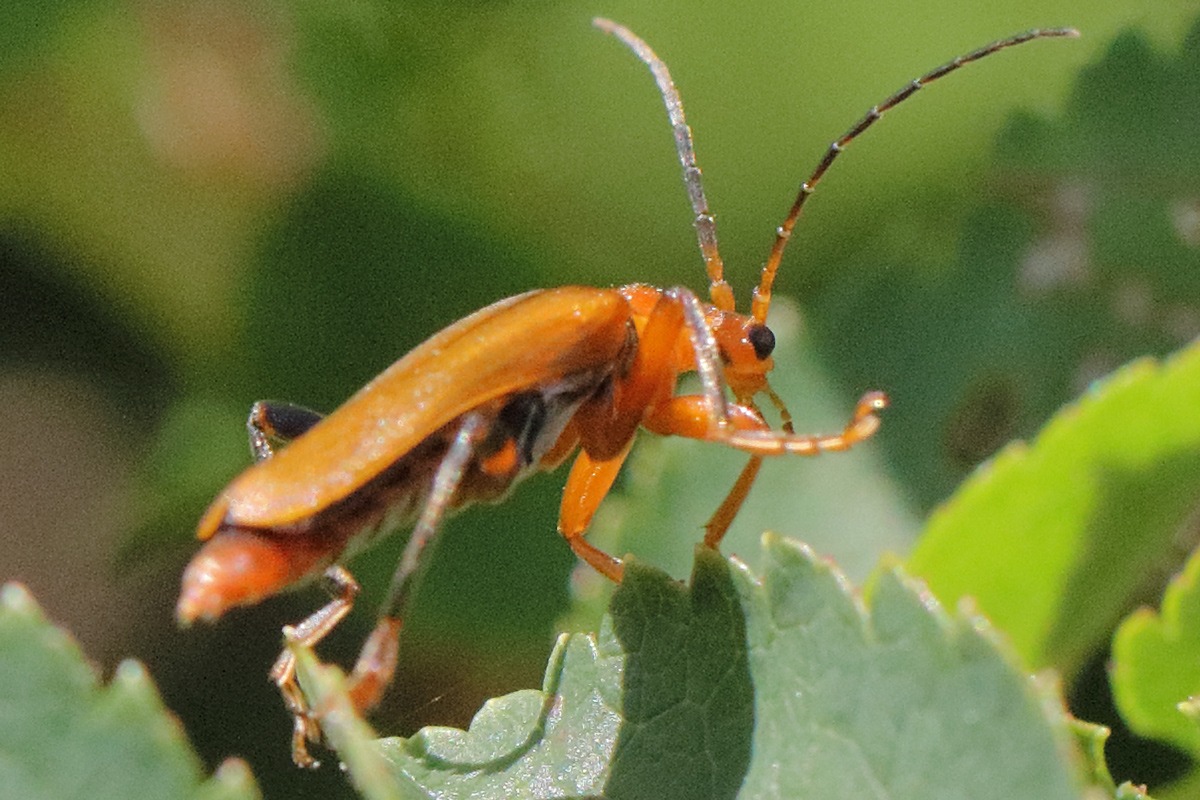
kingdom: Animalia
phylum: Arthropoda
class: Insecta
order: Coleoptera
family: Cantharidae
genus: Cantharis
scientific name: Cantharis livida
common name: Gul blødvinge
